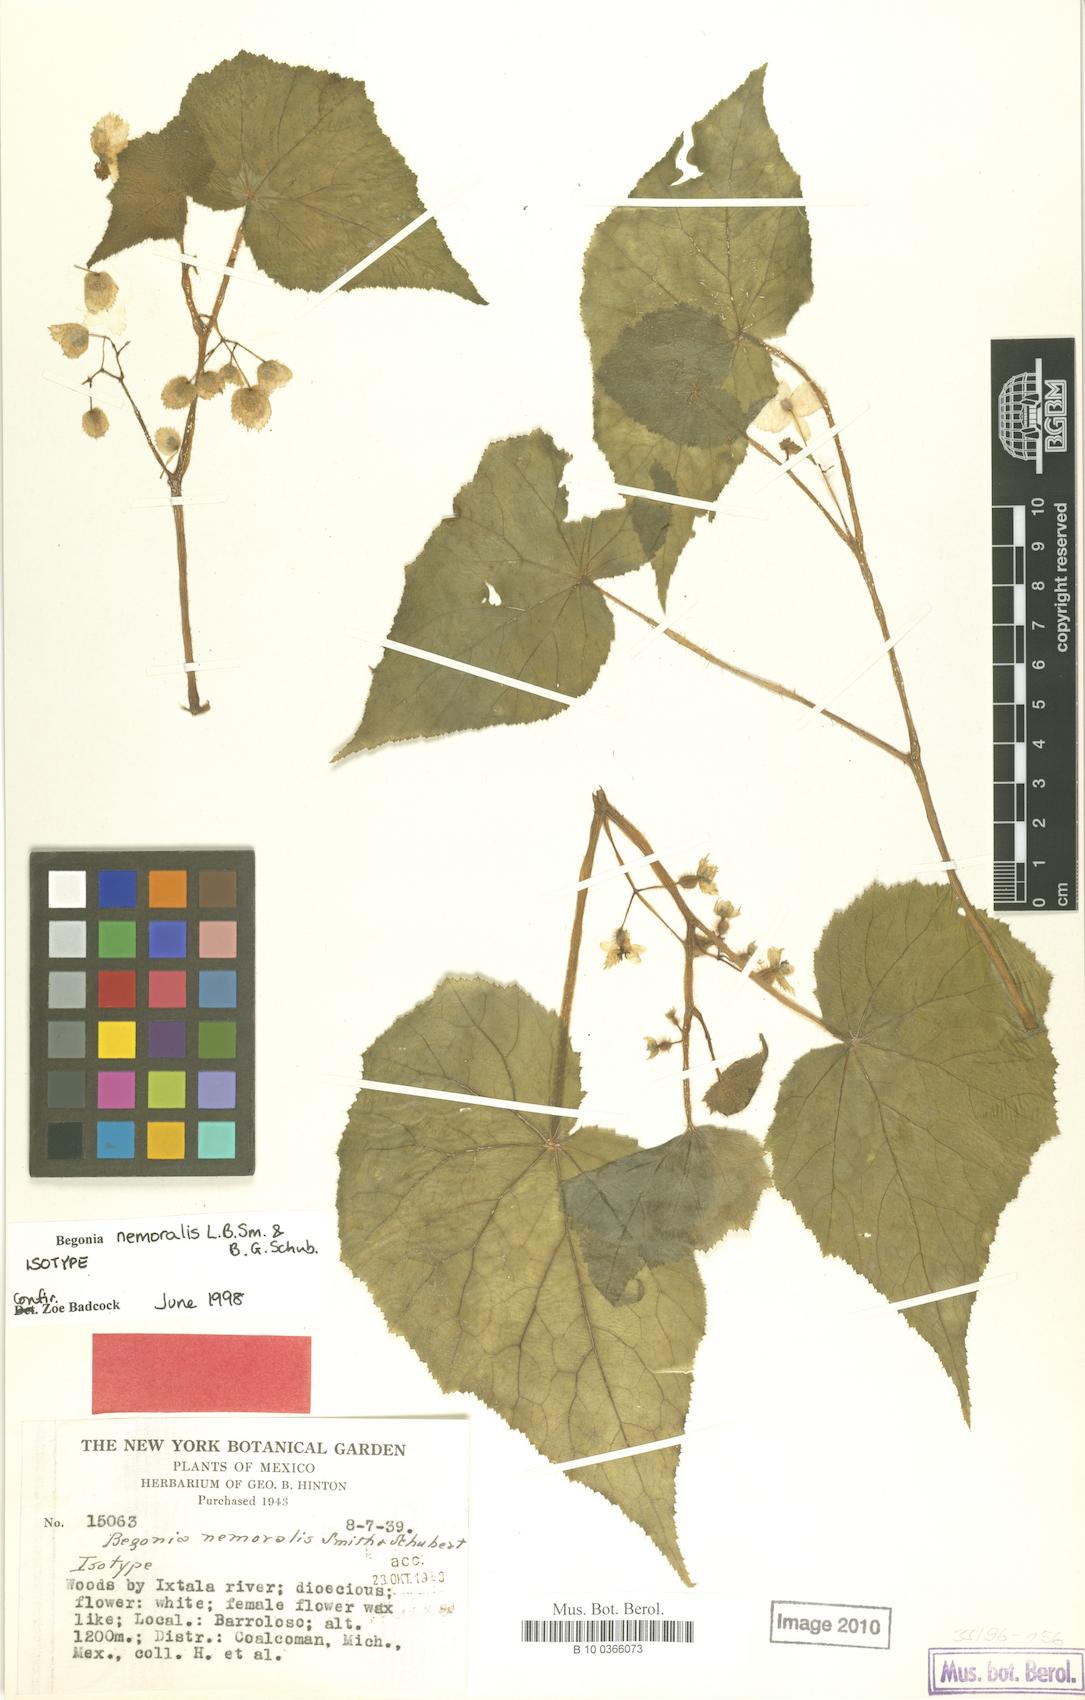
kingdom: Plantae
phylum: Tracheophyta
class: Magnoliopsida
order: Cucurbitales
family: Begoniaceae
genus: Begonia
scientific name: Begonia nemoralis
